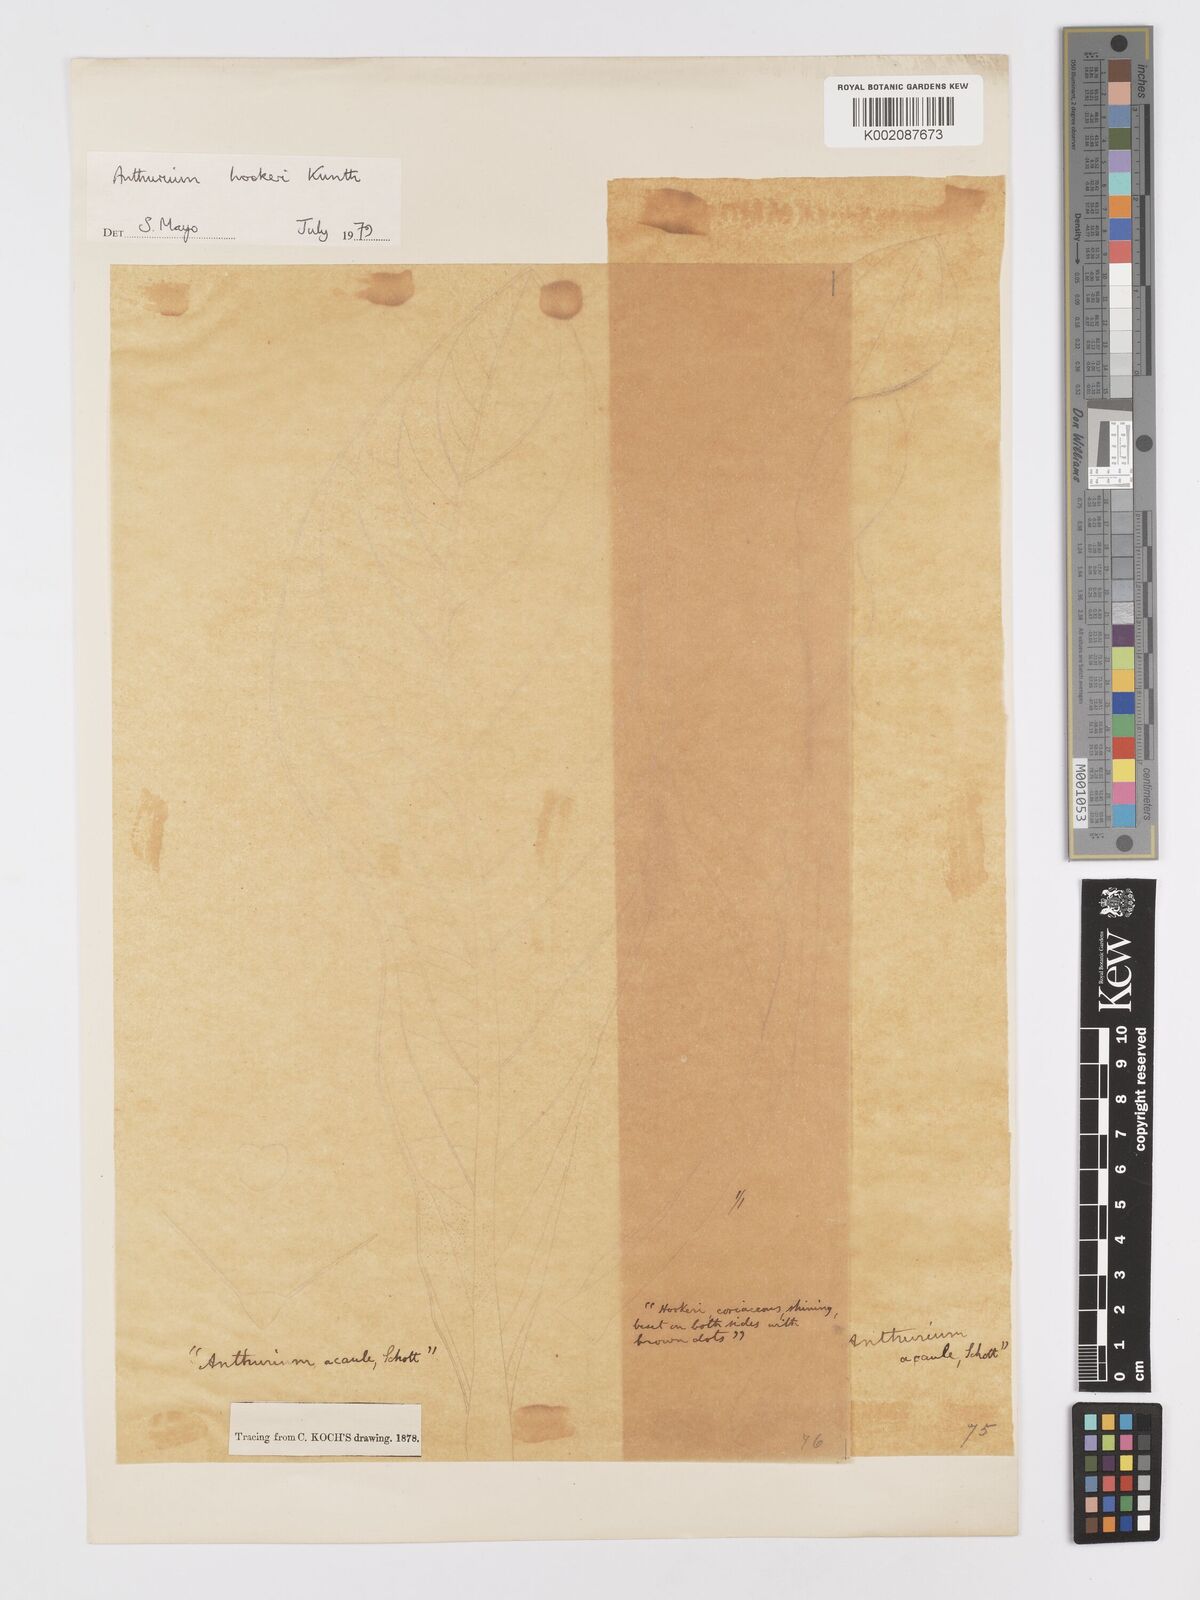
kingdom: Plantae
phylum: Tracheophyta
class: Liliopsida
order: Alismatales
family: Araceae
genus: Anthurium
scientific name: Anthurium hookeri
